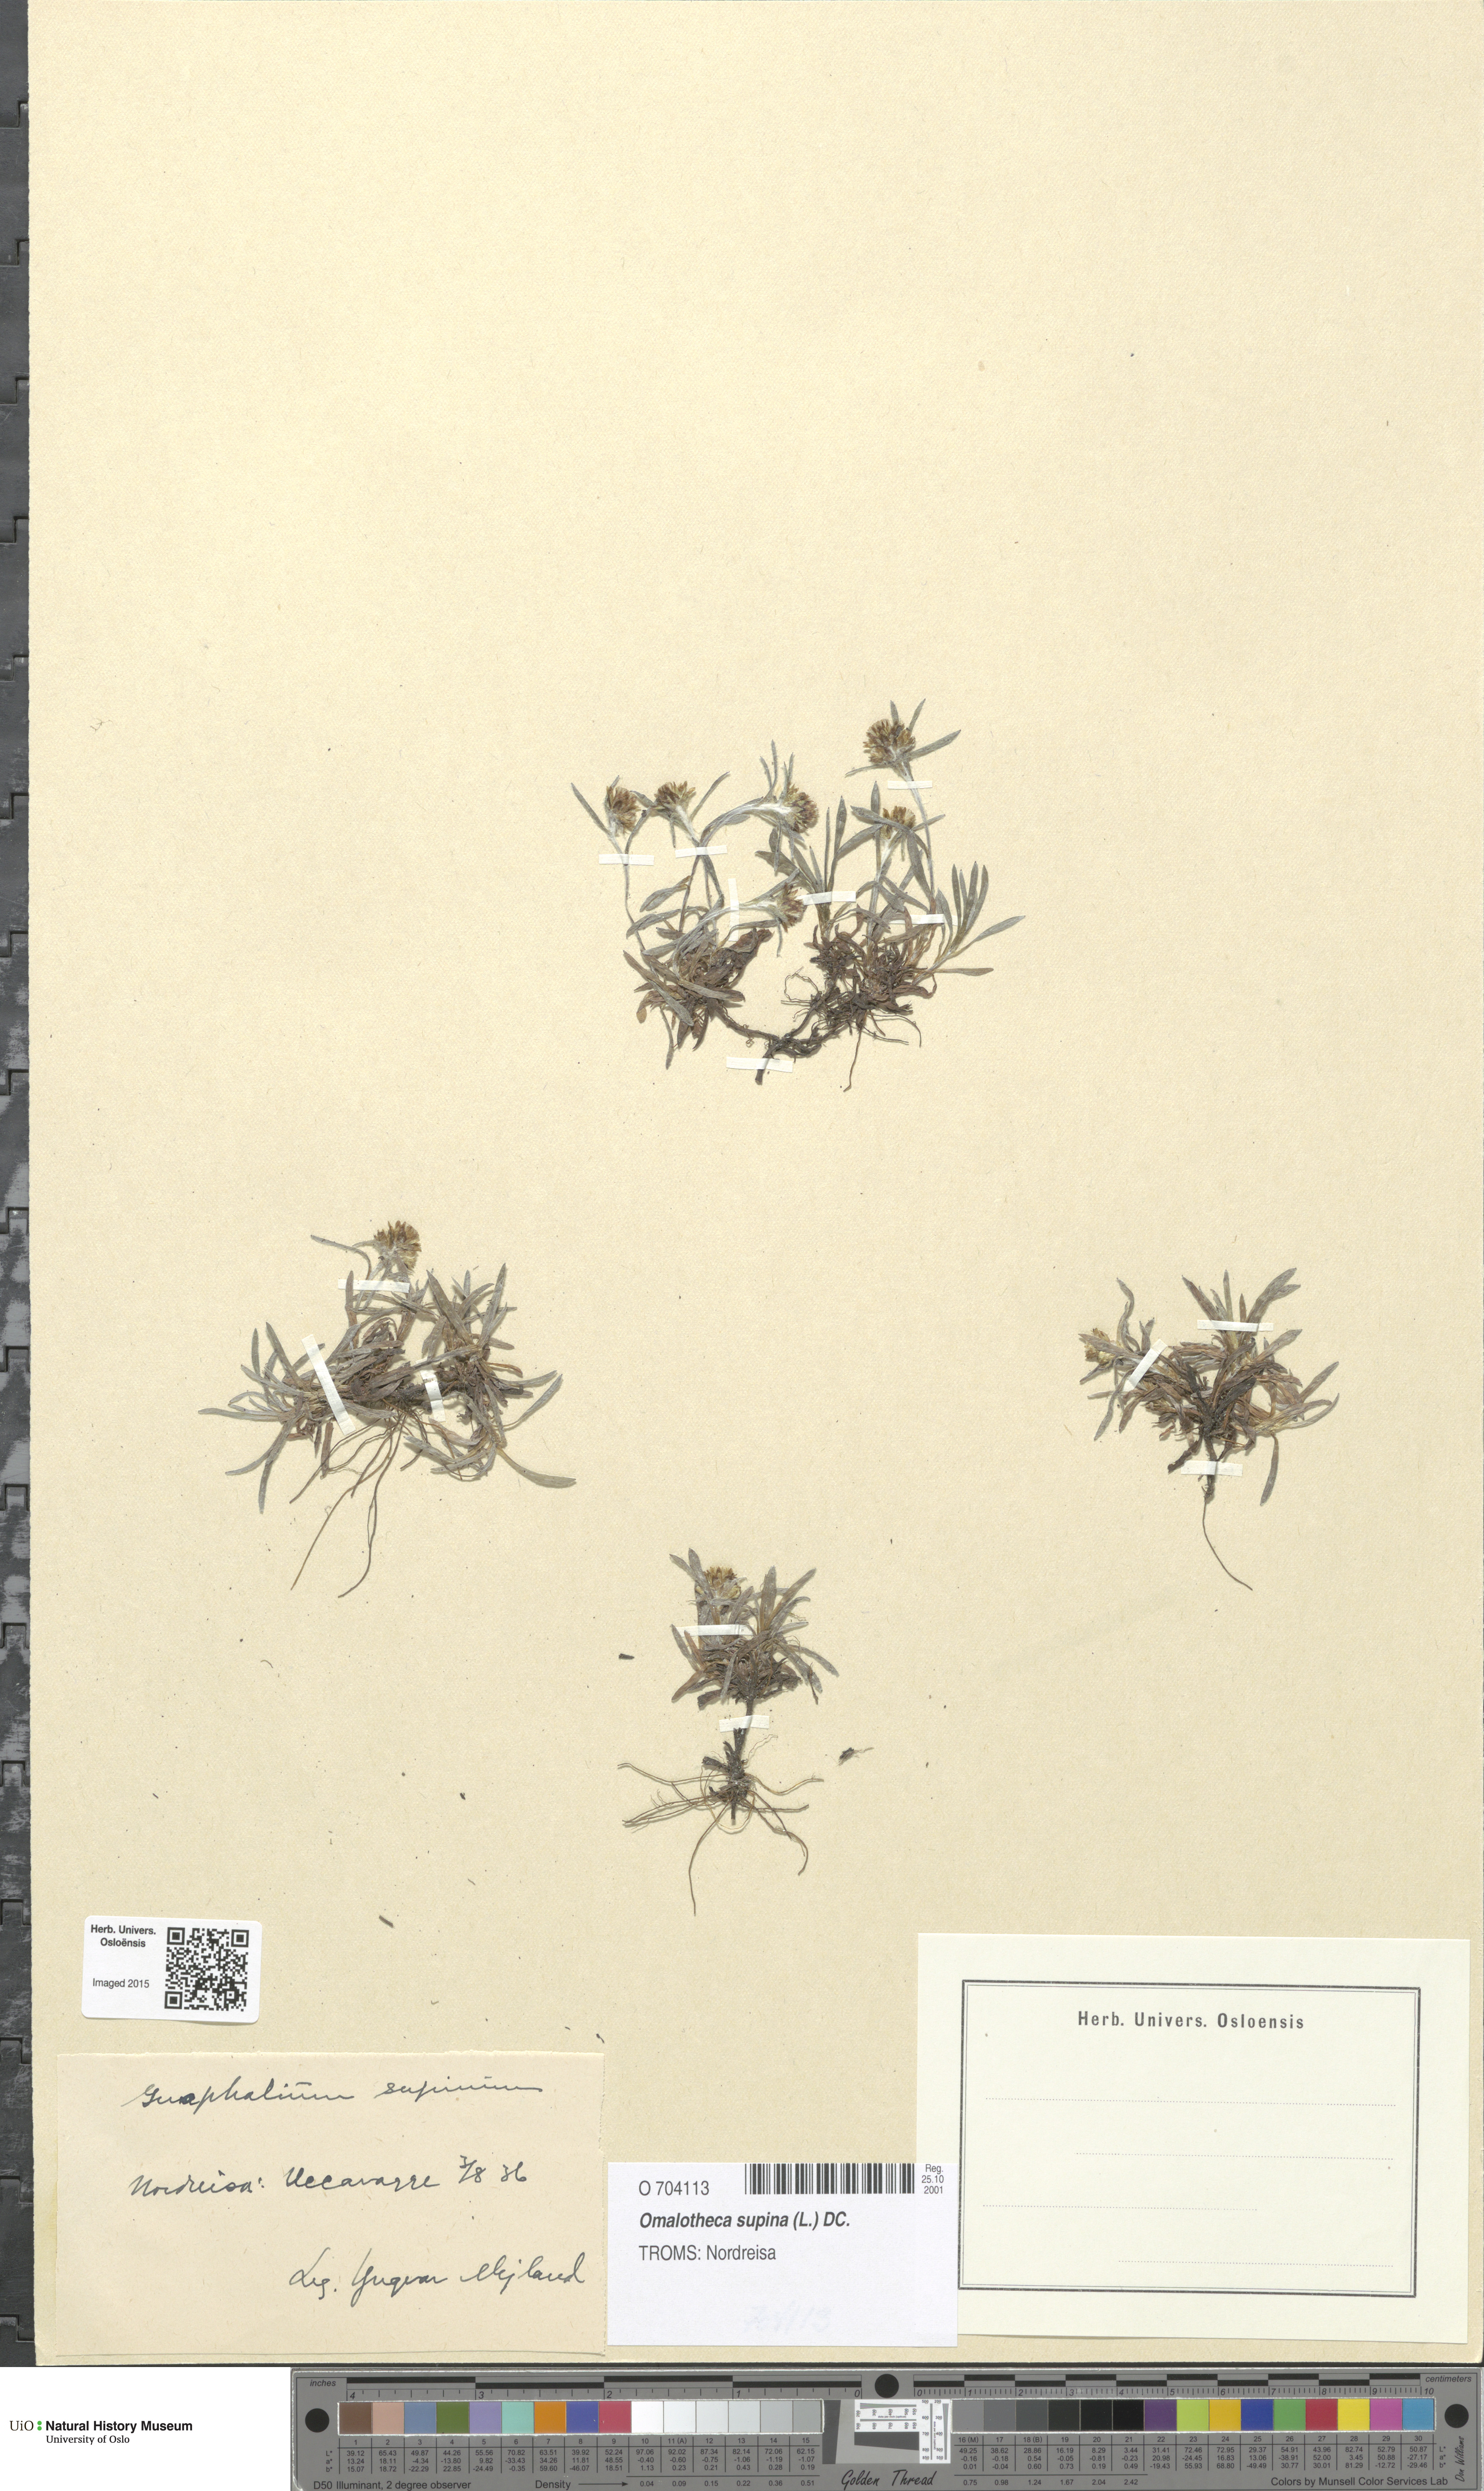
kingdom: Plantae
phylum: Tracheophyta
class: Magnoliopsida
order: Asterales
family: Asteraceae
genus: Omalotheca
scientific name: Omalotheca supina
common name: Alpine arctic-cudweed
